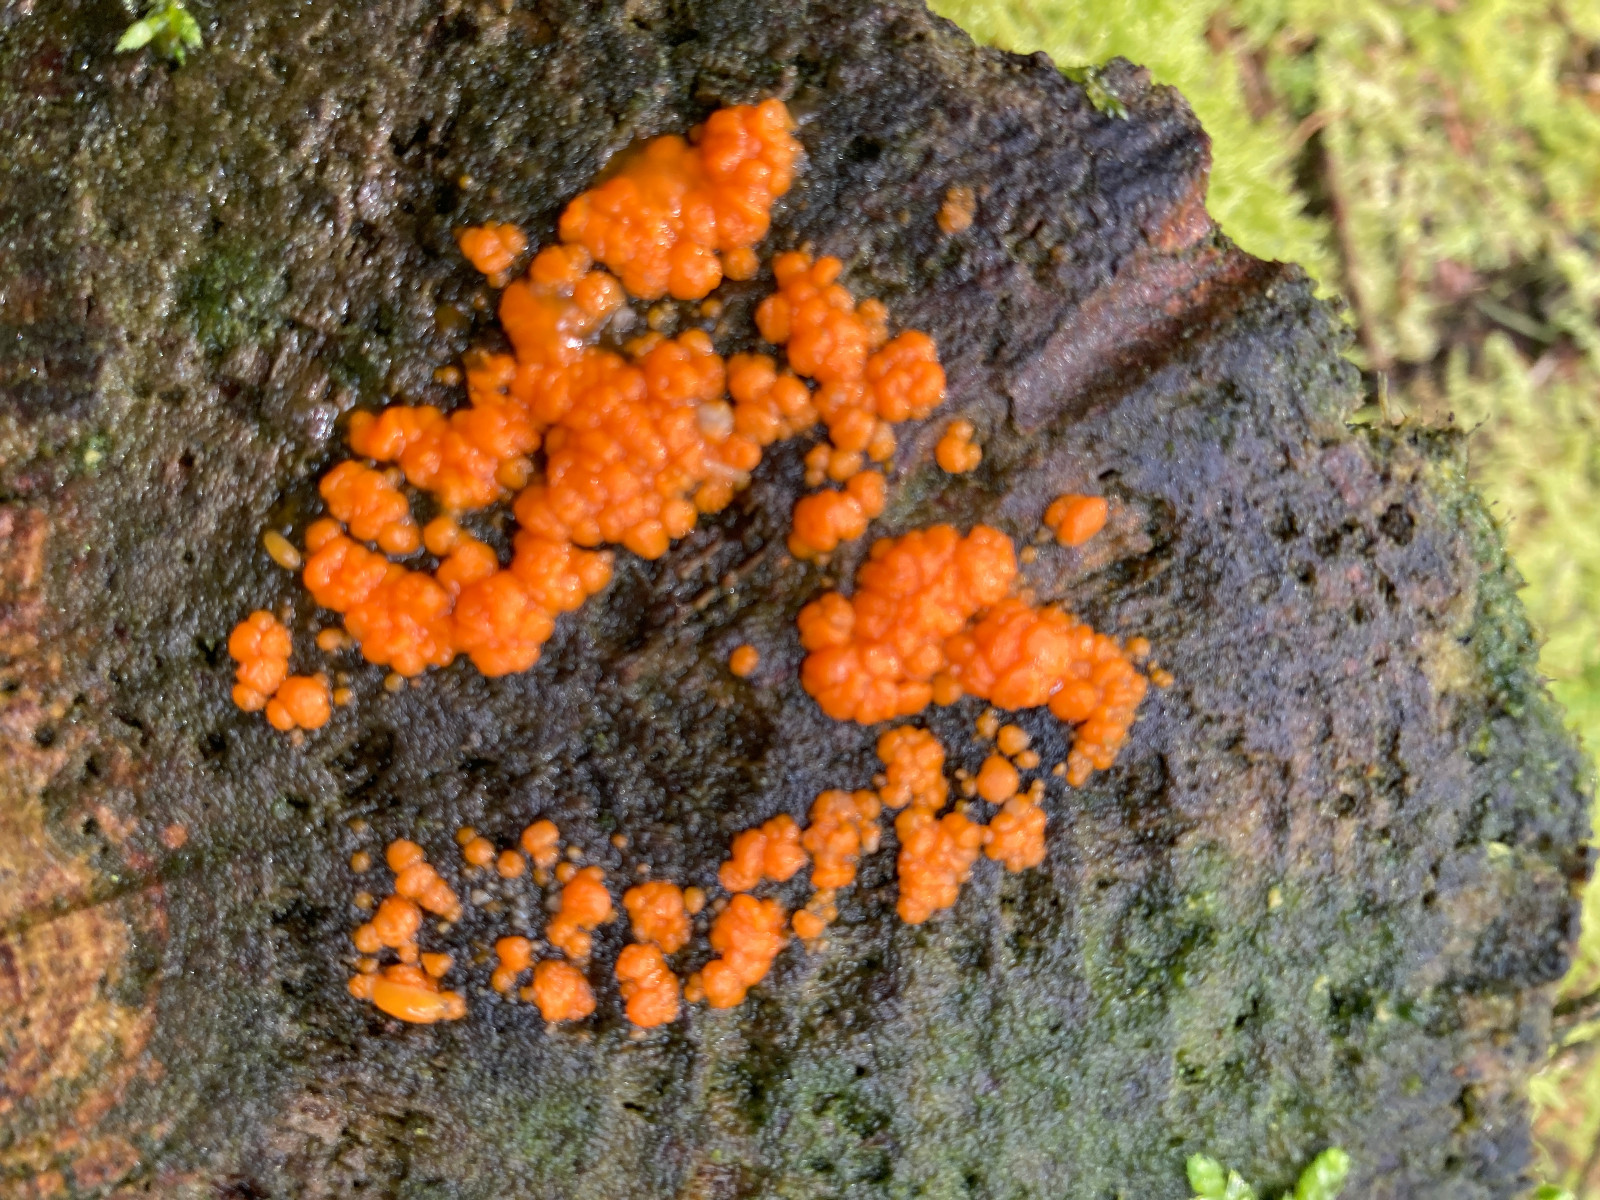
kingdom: Fungi
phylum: Basidiomycota
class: Dacrymycetes
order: Dacrymycetales
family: Dacrymycetaceae
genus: Dacrymyces
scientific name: Dacrymyces stillatus
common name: almindelig tåresvamp
